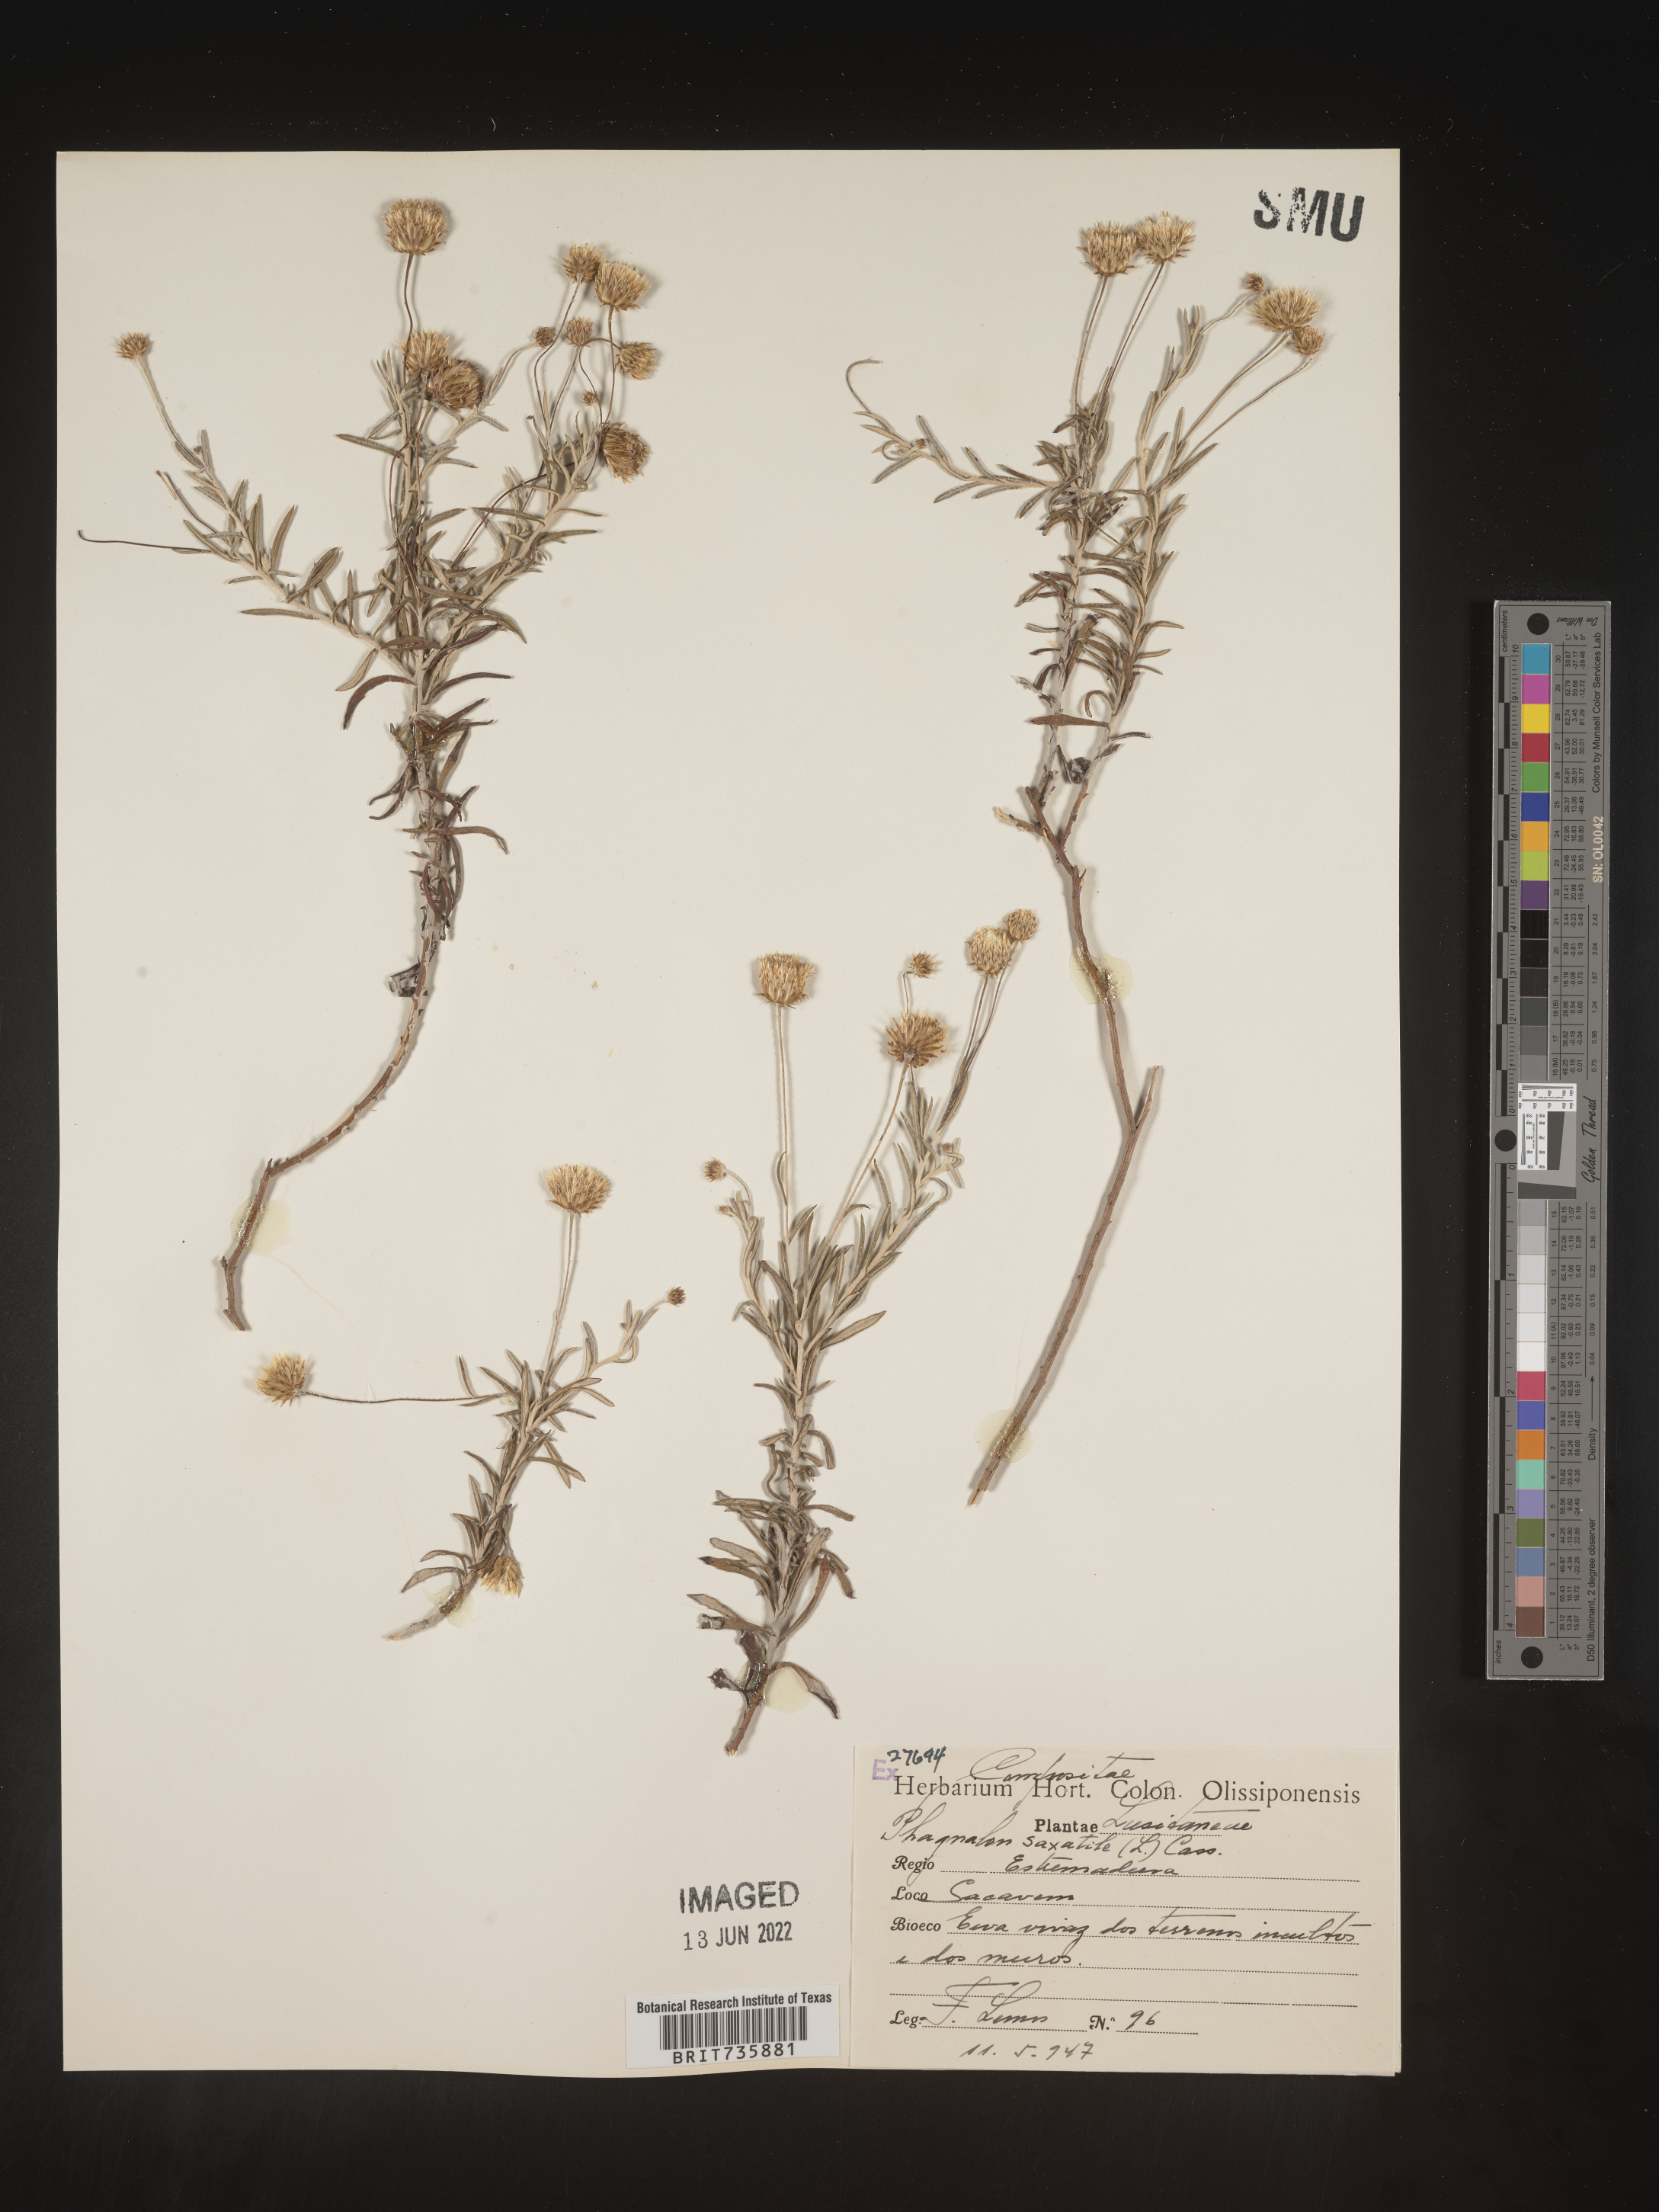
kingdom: Plantae
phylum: Tracheophyta
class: Magnoliopsida
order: Asterales
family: Asteraceae
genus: Phagnalon
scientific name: Phagnalon
